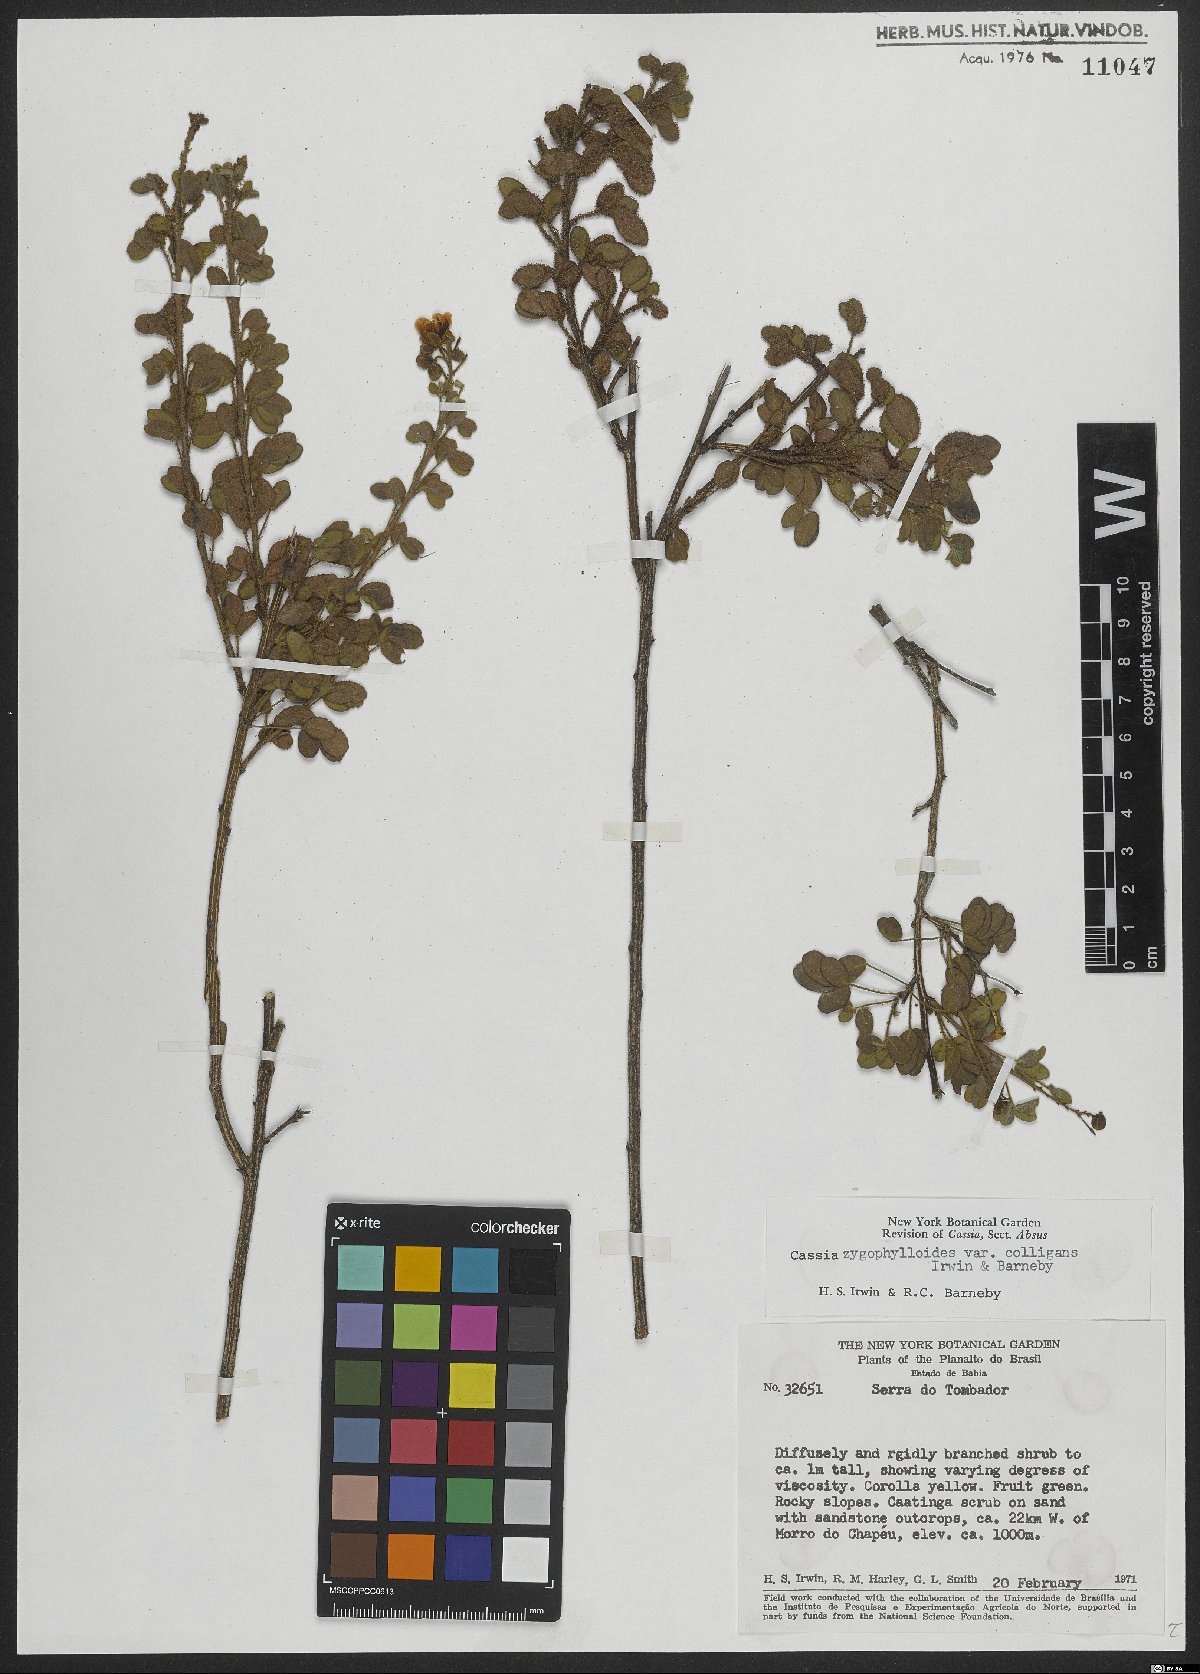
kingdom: Plantae
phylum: Tracheophyta
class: Magnoliopsida
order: Fabales
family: Fabaceae
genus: Chamaecrista
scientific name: Chamaecrista zygophylloides
